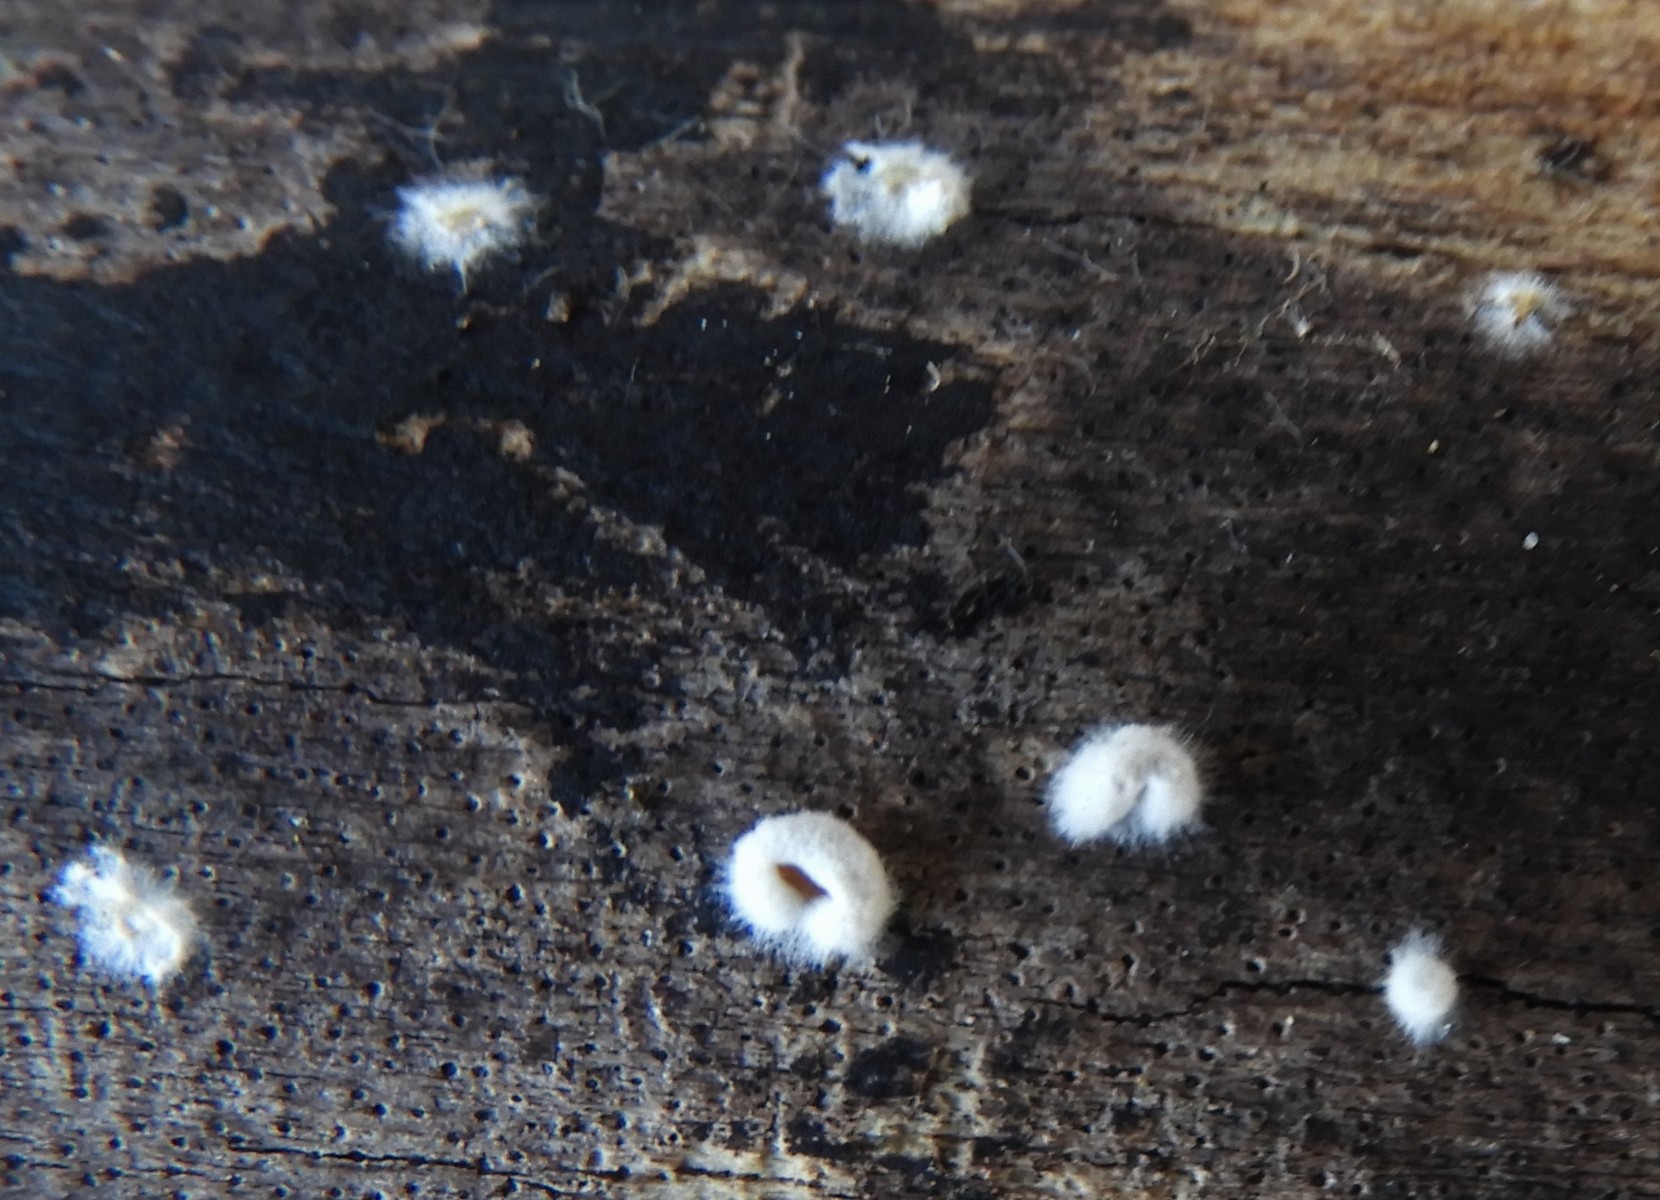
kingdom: Fungi
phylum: Basidiomycota
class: Agaricomycetes
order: Agaricales
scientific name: Agaricales
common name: champignonordenen
